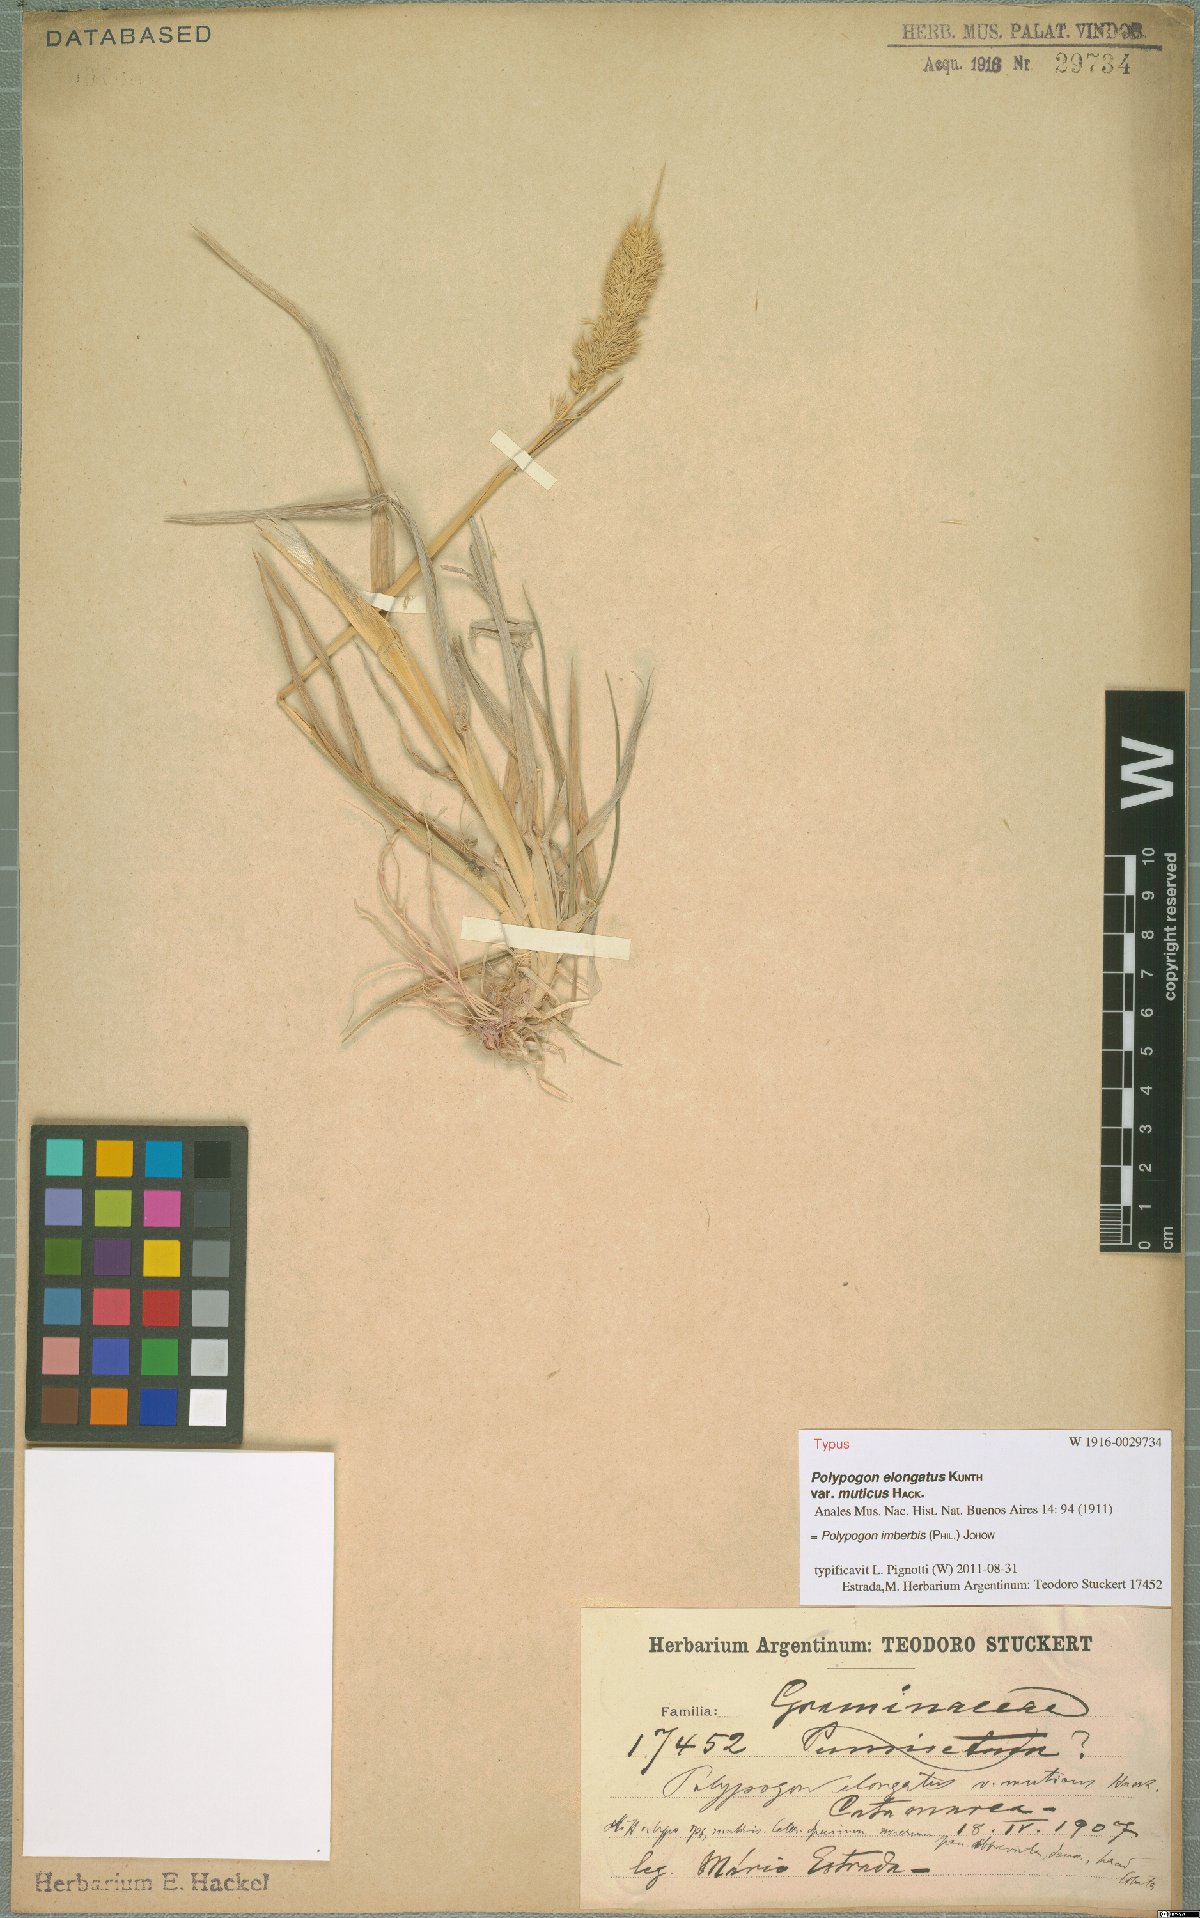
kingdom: Plantae
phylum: Tracheophyta
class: Liliopsida
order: Poales
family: Poaceae
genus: Polypogon
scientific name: Polypogon imberbis
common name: Beardless rabbitsfoot grass
